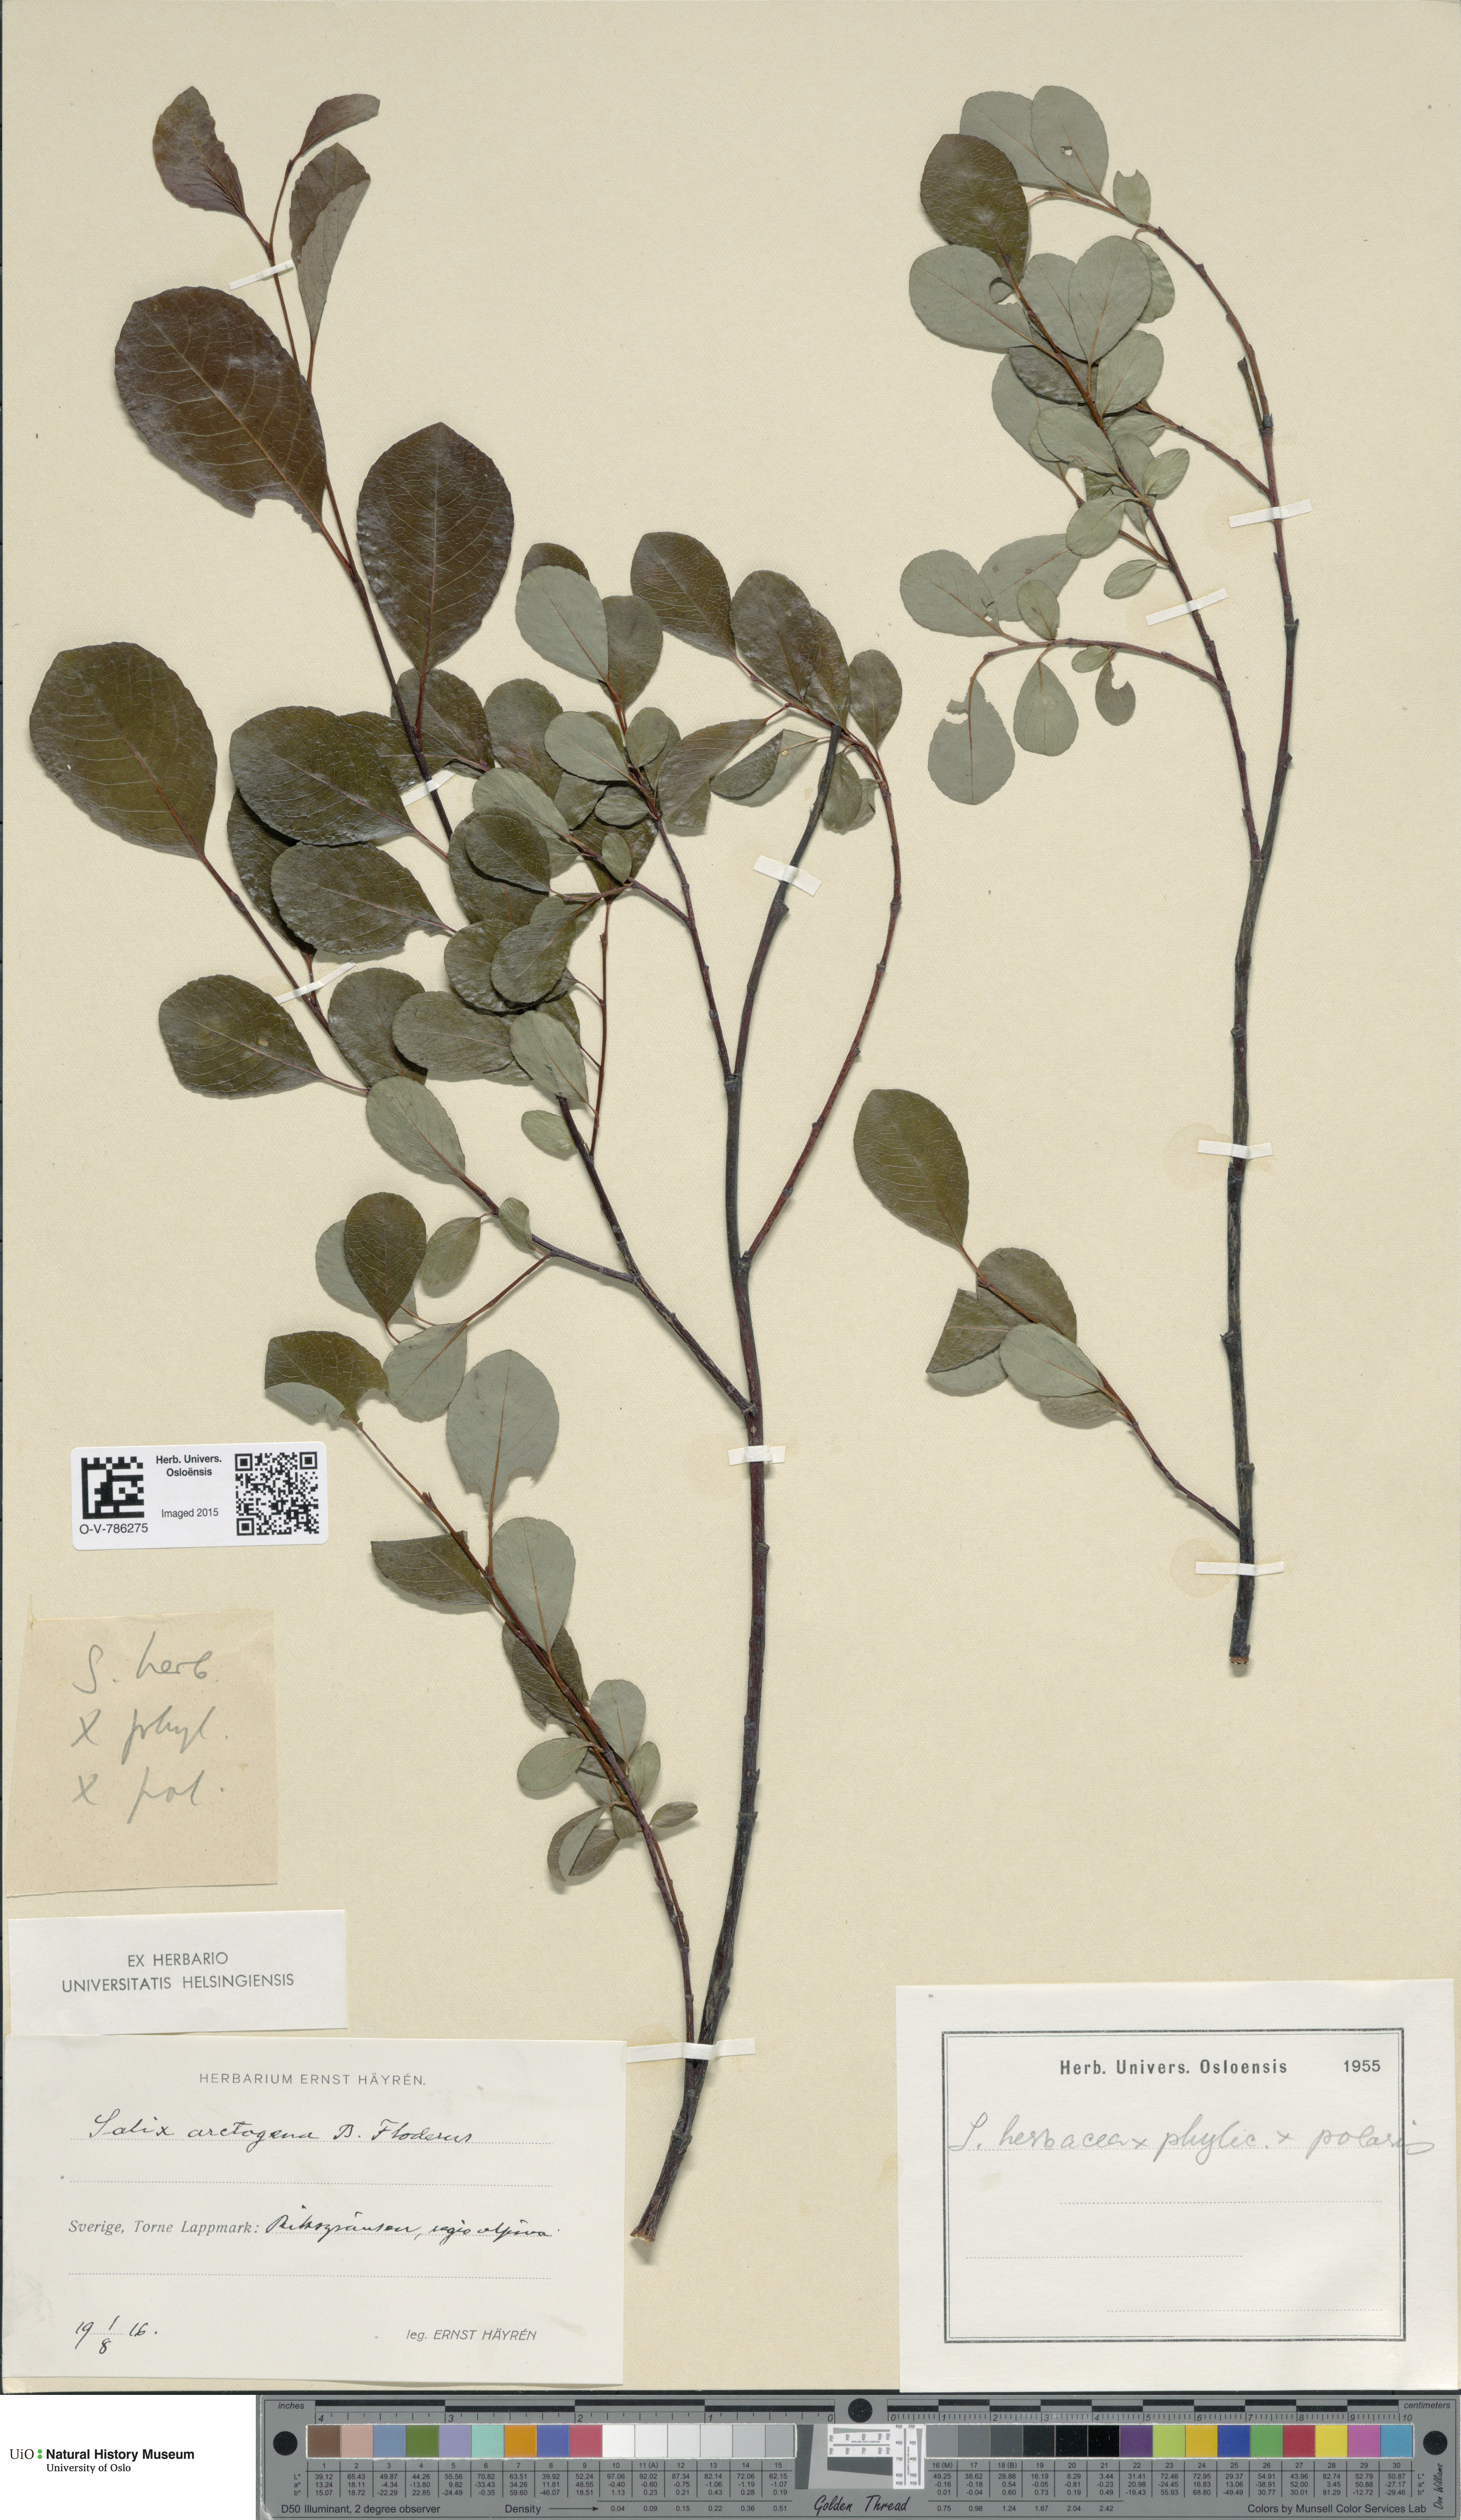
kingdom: Plantae
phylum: Tracheophyta
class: Magnoliopsida
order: Malpighiales
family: Salicaceae
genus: Salix
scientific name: Salix arctogena
